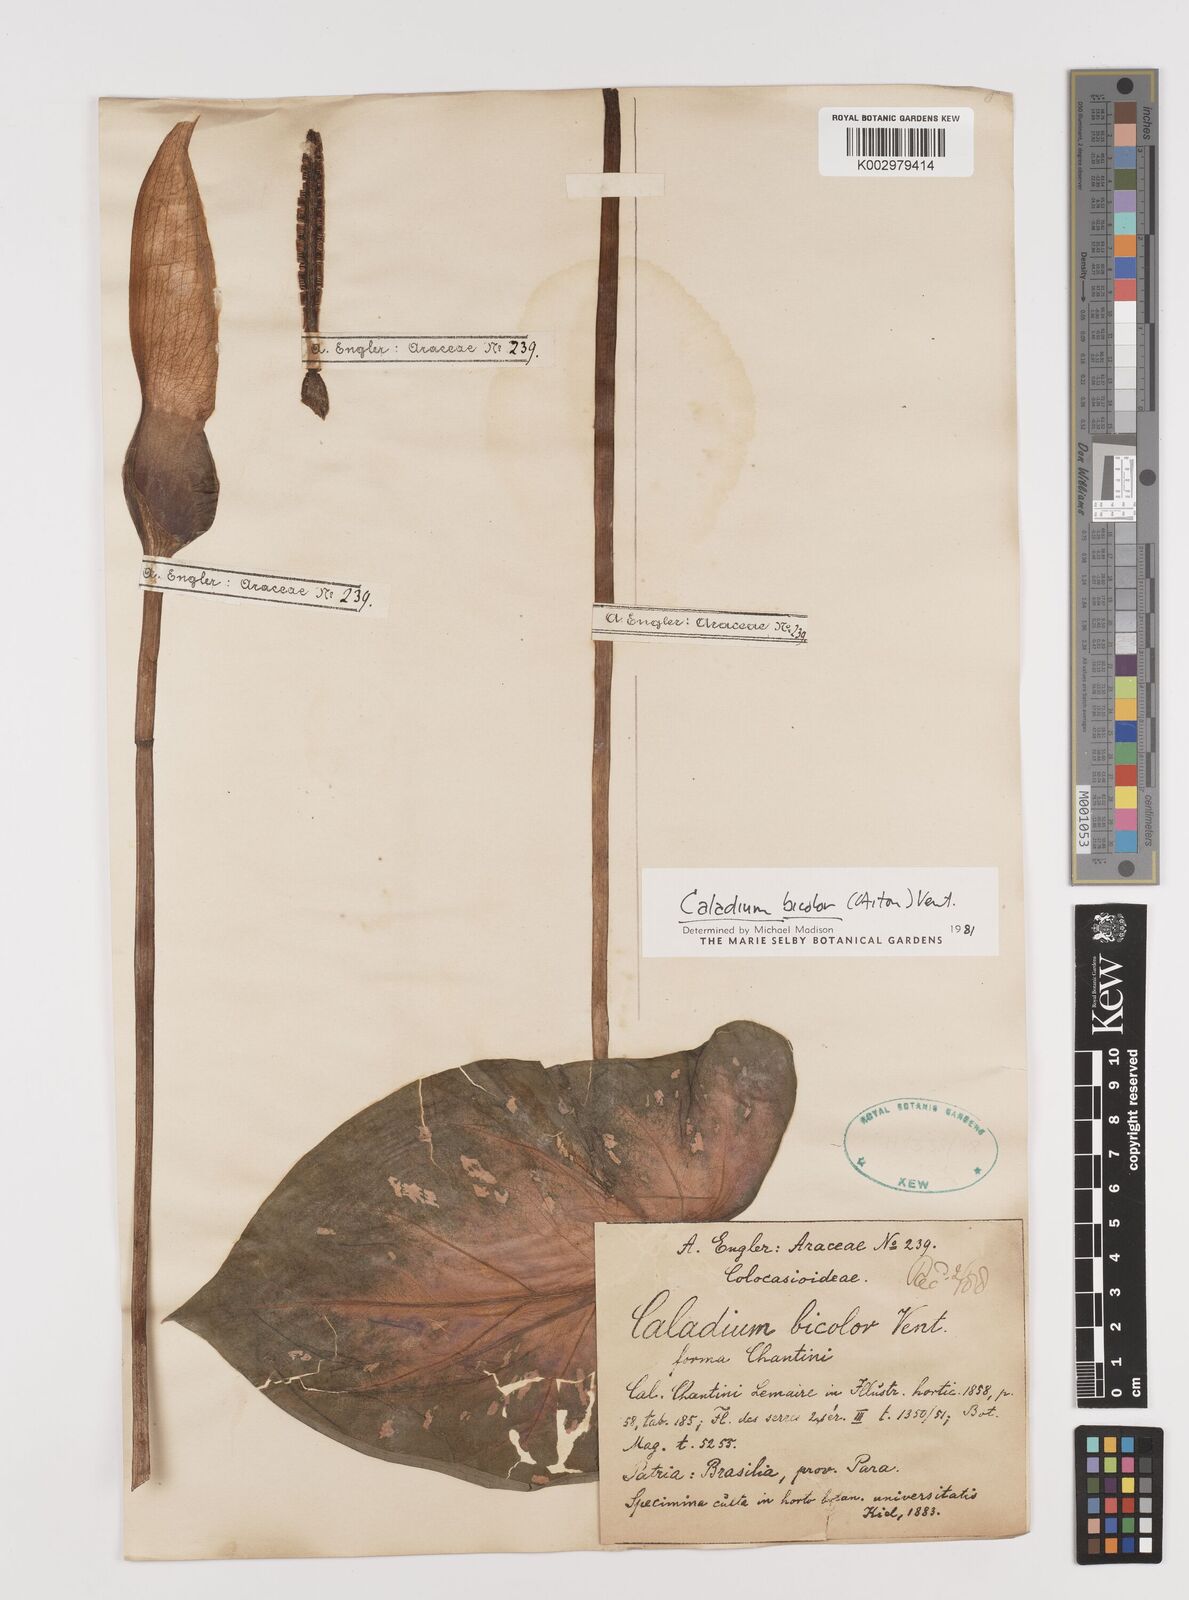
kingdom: Plantae
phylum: Tracheophyta
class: Liliopsida
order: Alismatales
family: Araceae
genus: Caladium
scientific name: Caladium bicolor
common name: Artist's pallet
